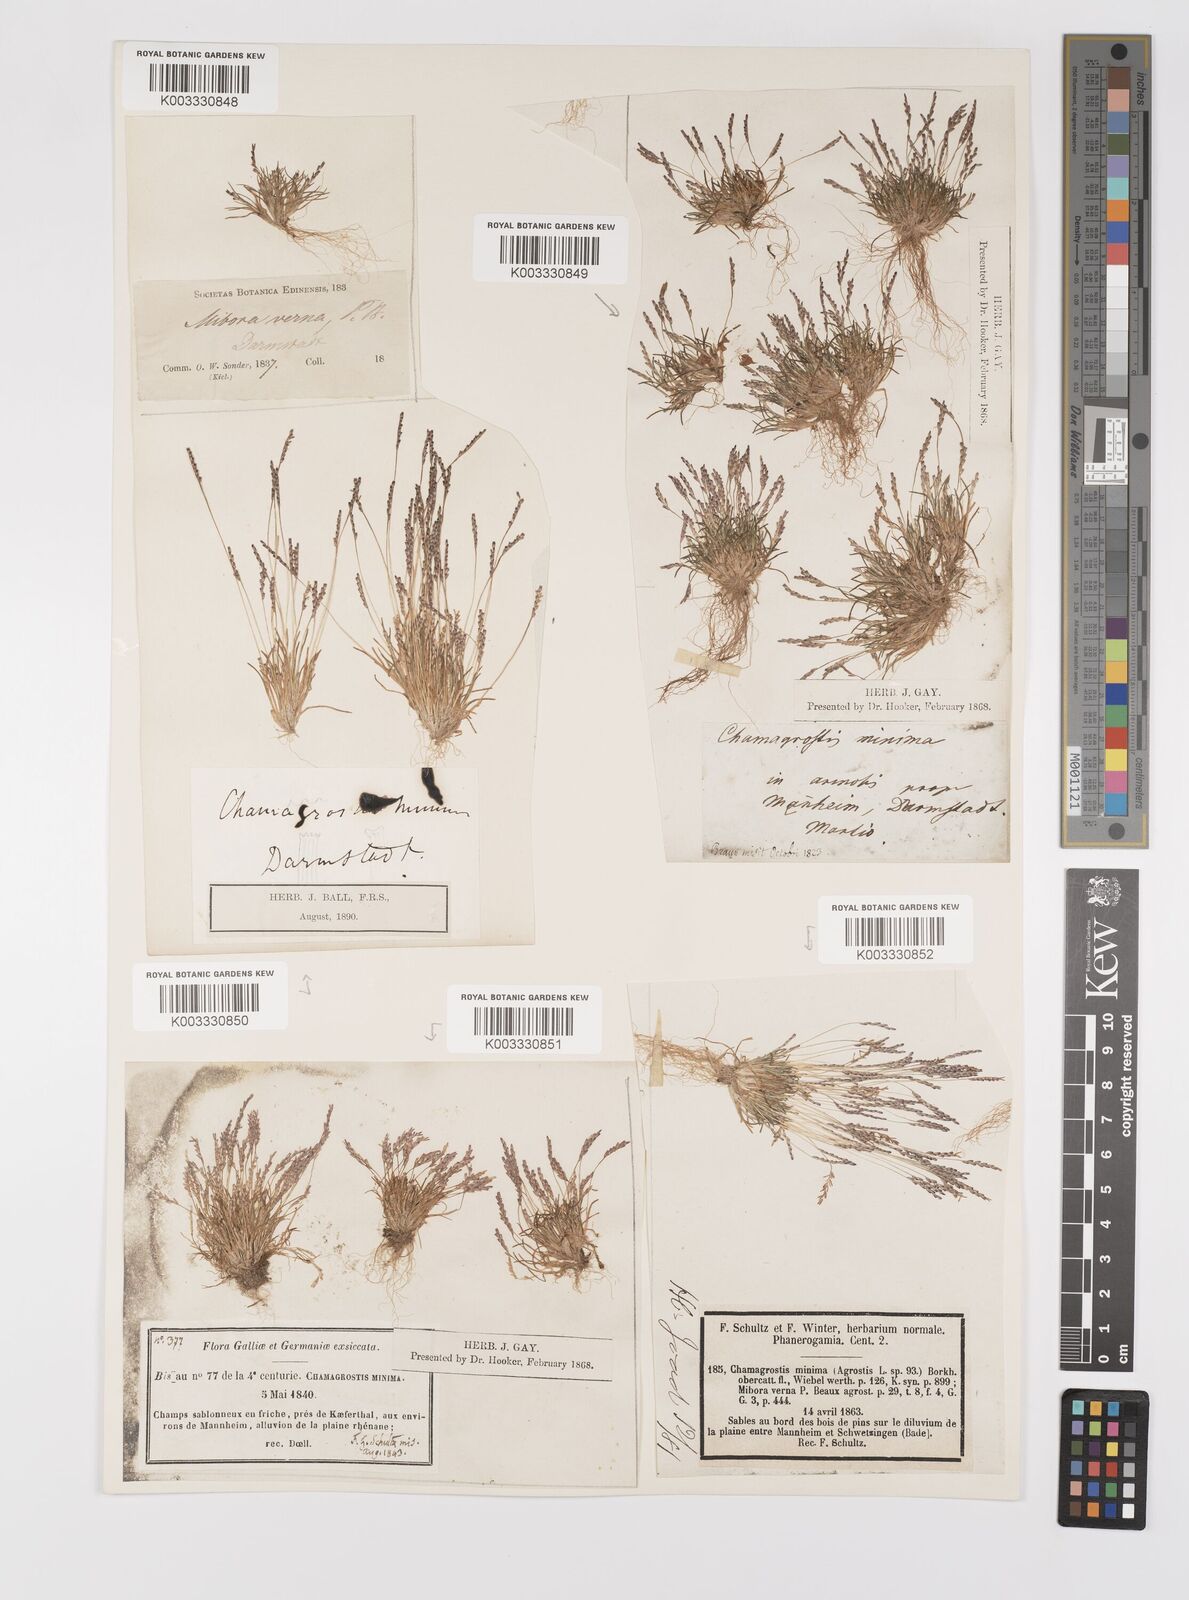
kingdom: Plantae
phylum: Tracheophyta
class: Liliopsida
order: Poales
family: Poaceae
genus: Mibora
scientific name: Mibora minima
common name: Early sand-grass
